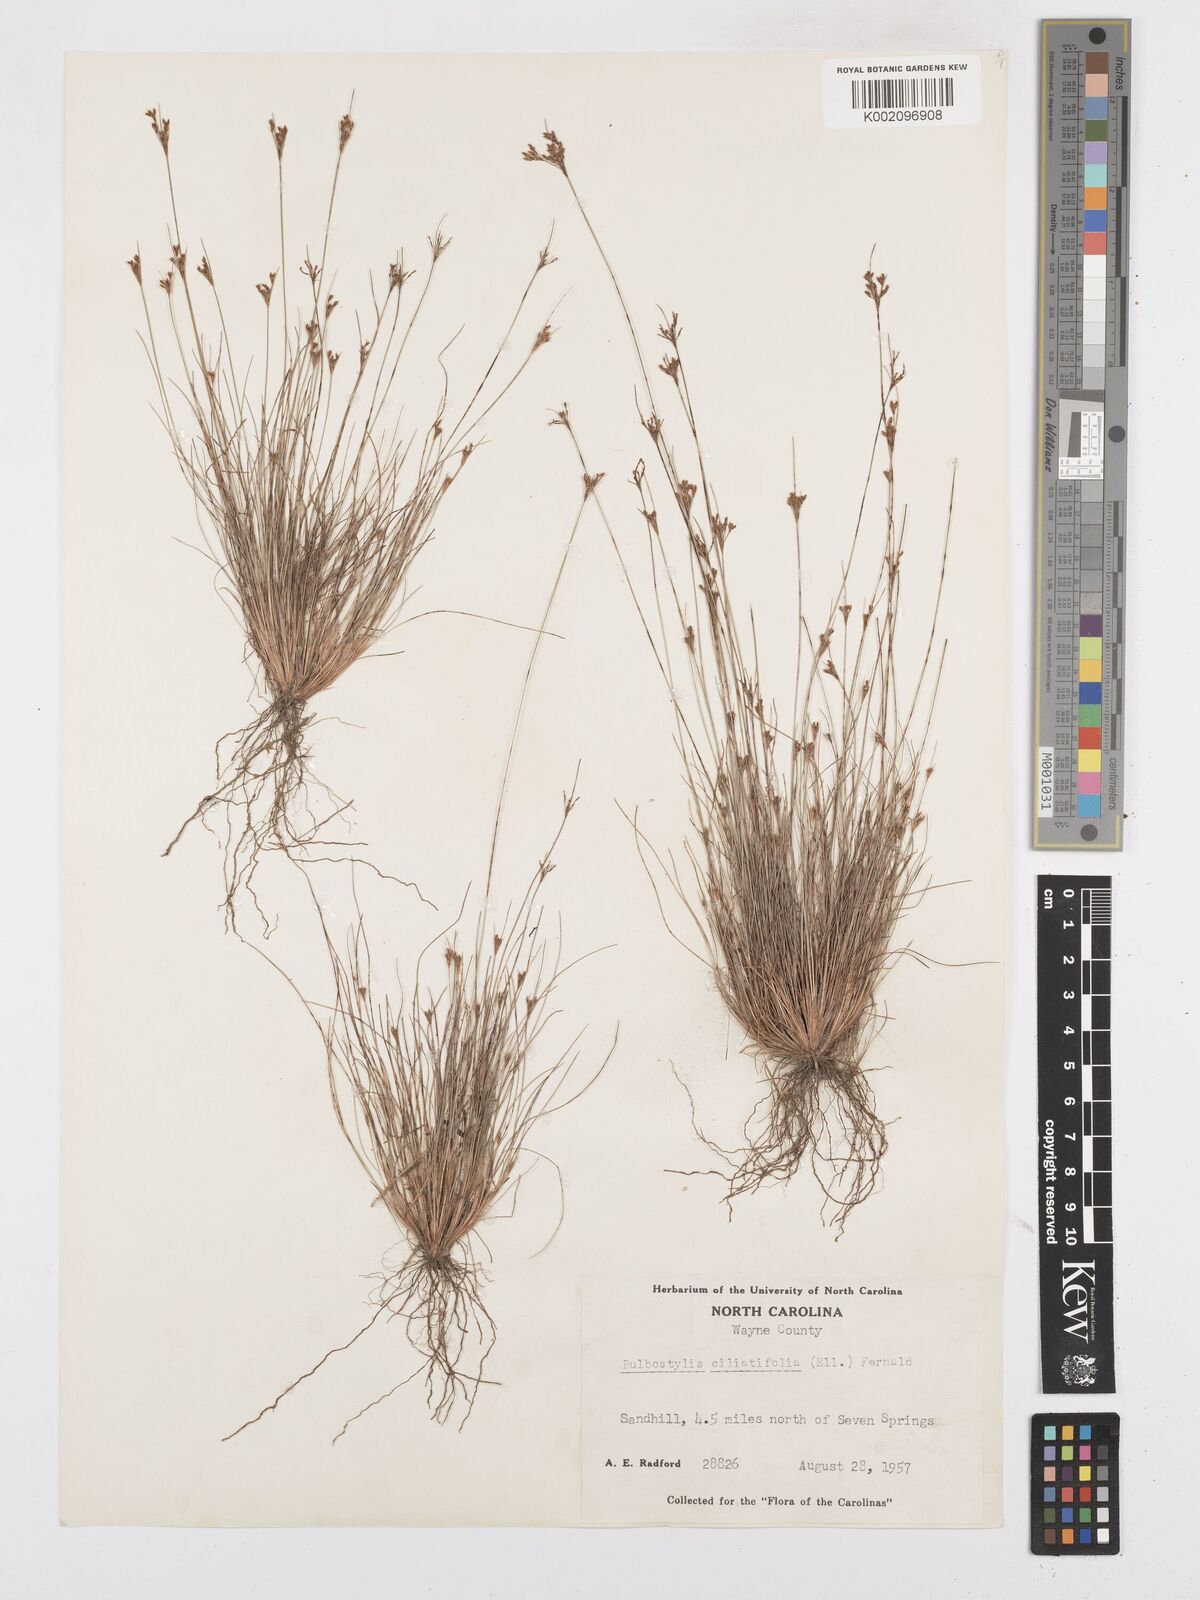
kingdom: Plantae
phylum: Tracheophyta
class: Liliopsida
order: Poales
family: Cyperaceae
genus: Bulbostylis
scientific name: Bulbostylis capillaris
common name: Densetuft hairsedge
